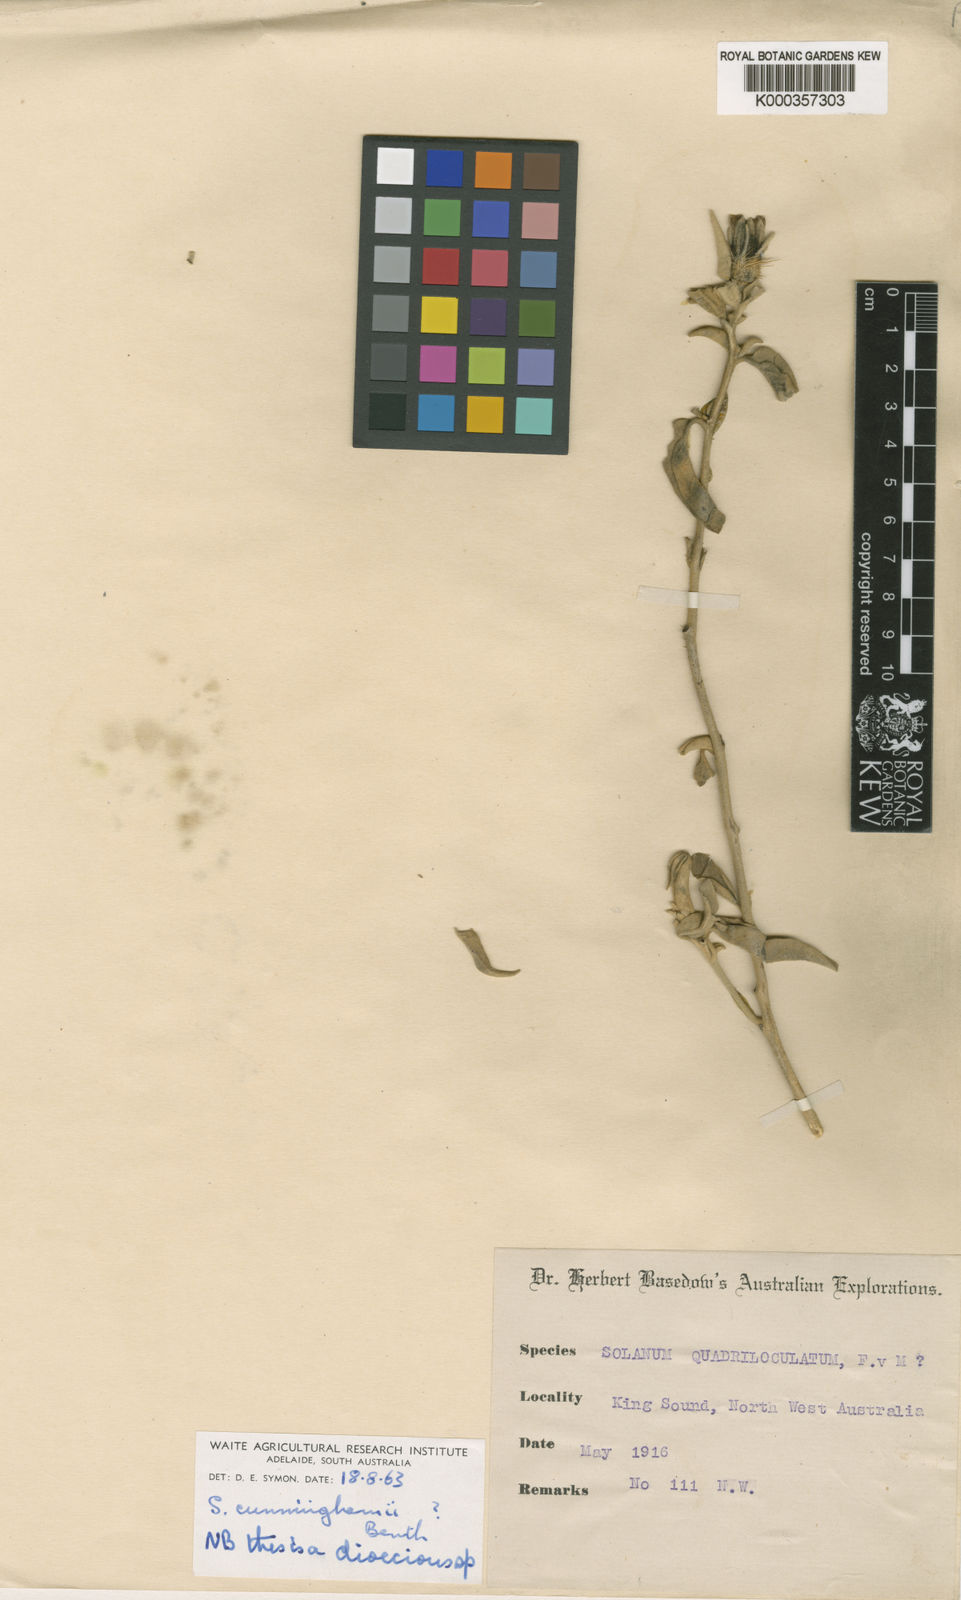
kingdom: Plantae
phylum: Tracheophyta
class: Magnoliopsida
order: Solanales
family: Solanaceae
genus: Solanum
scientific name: Solanum cunninghamii
